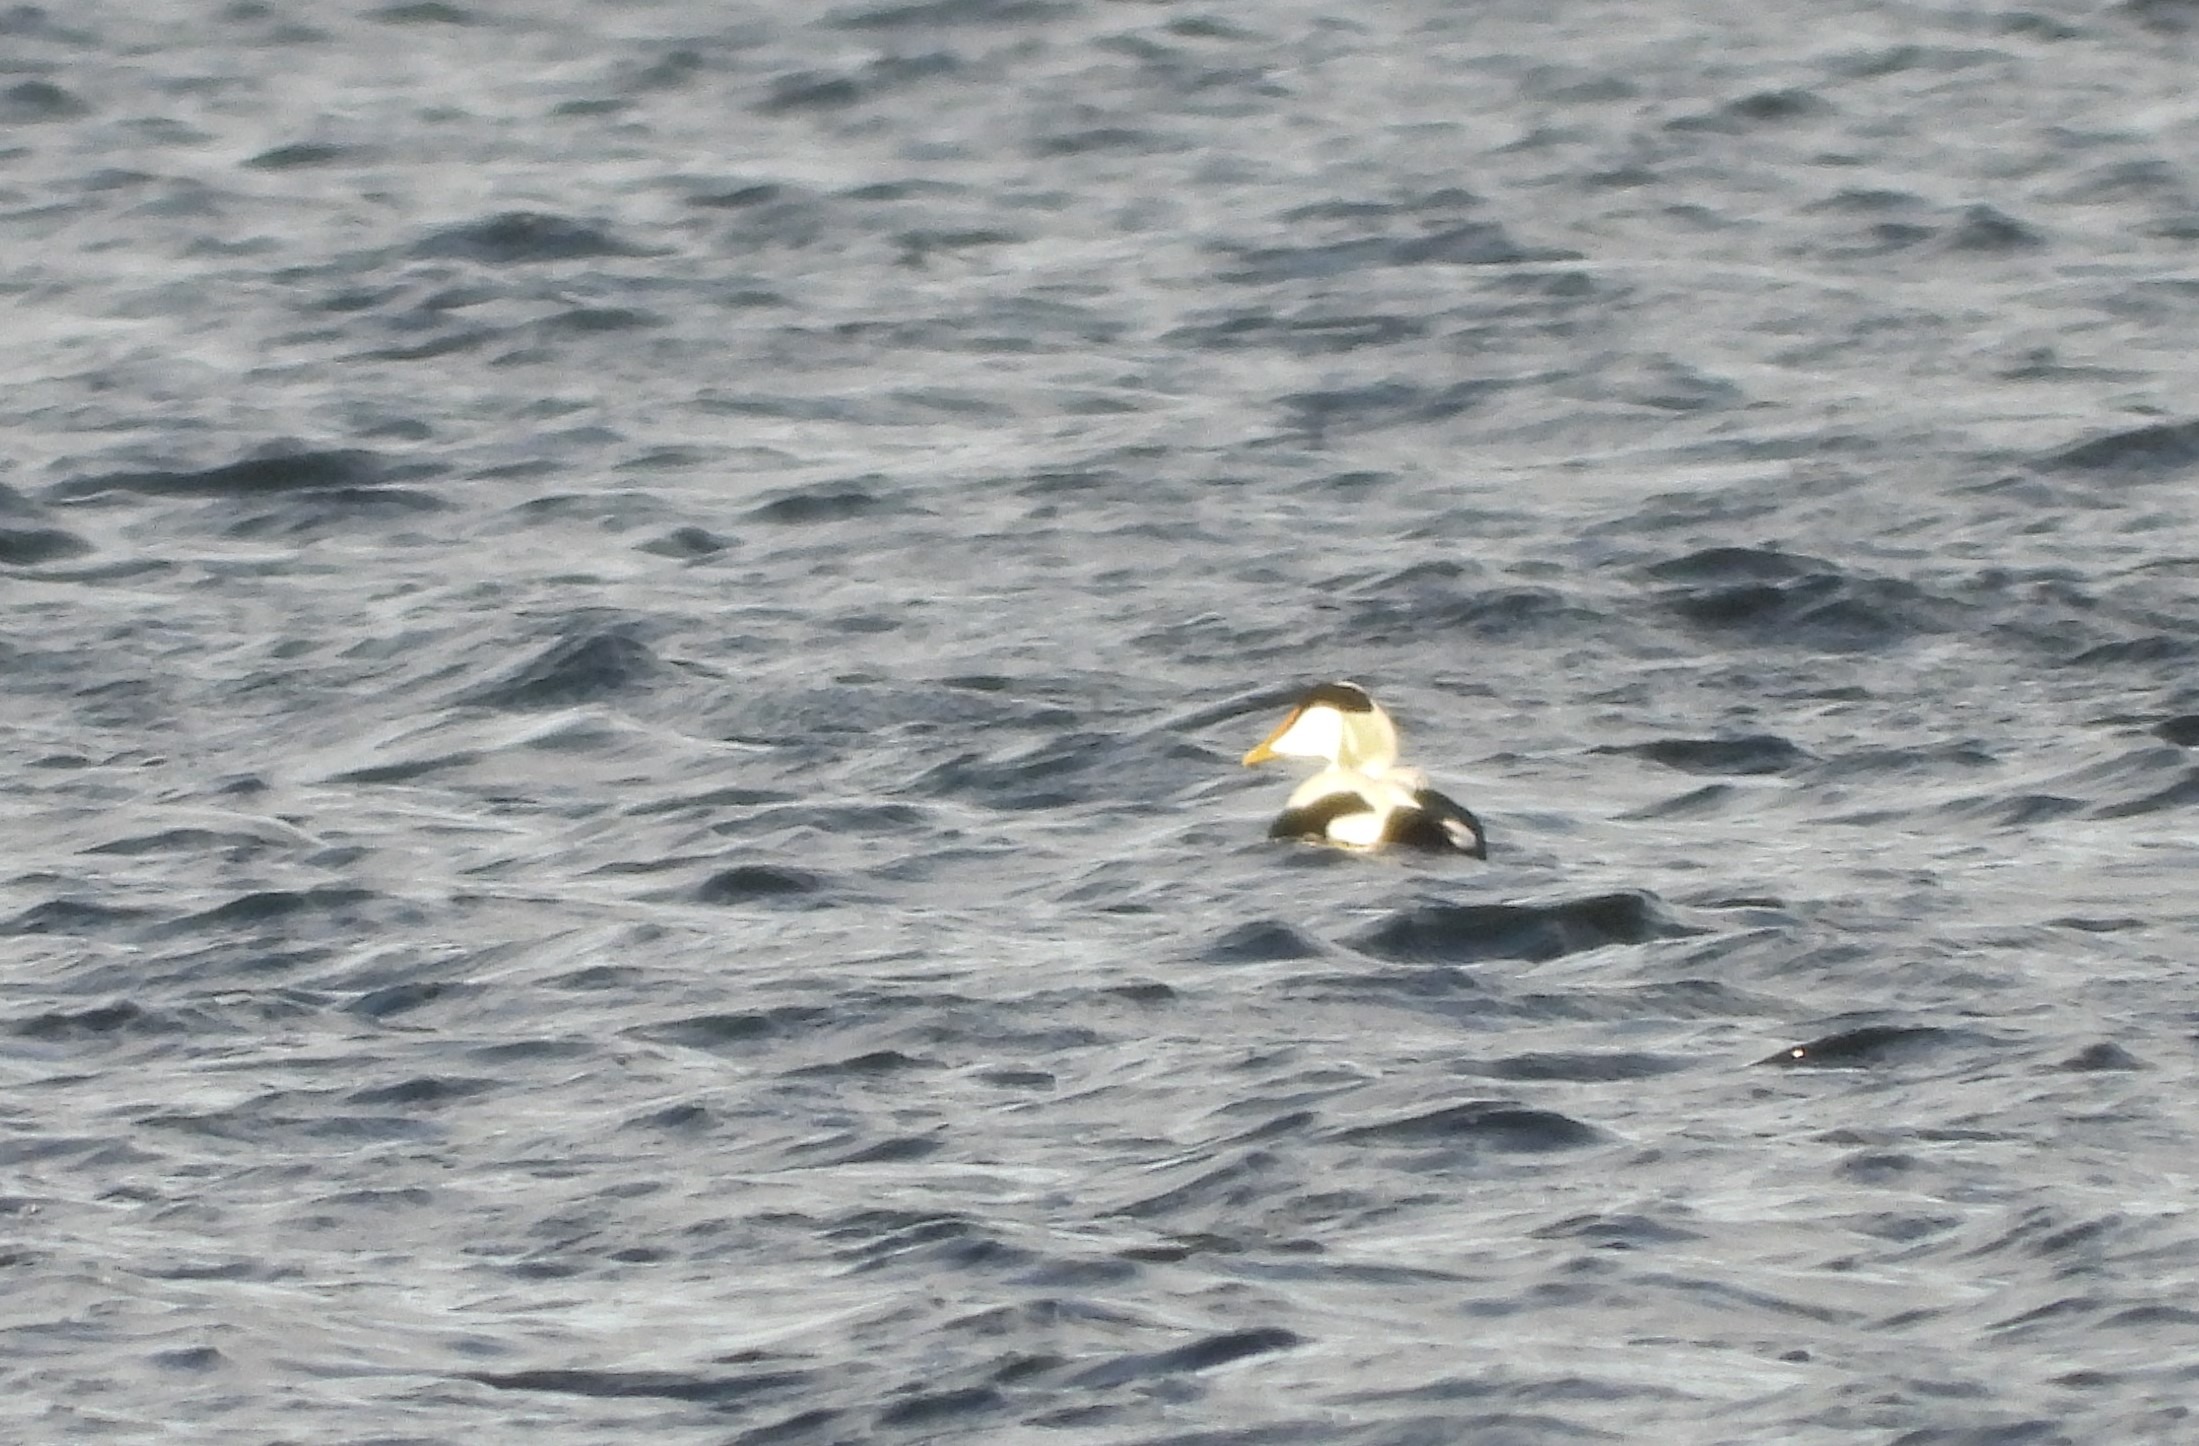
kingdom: Animalia
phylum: Chordata
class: Aves
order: Anseriformes
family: Anatidae
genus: Somateria
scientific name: Somateria mollissima
